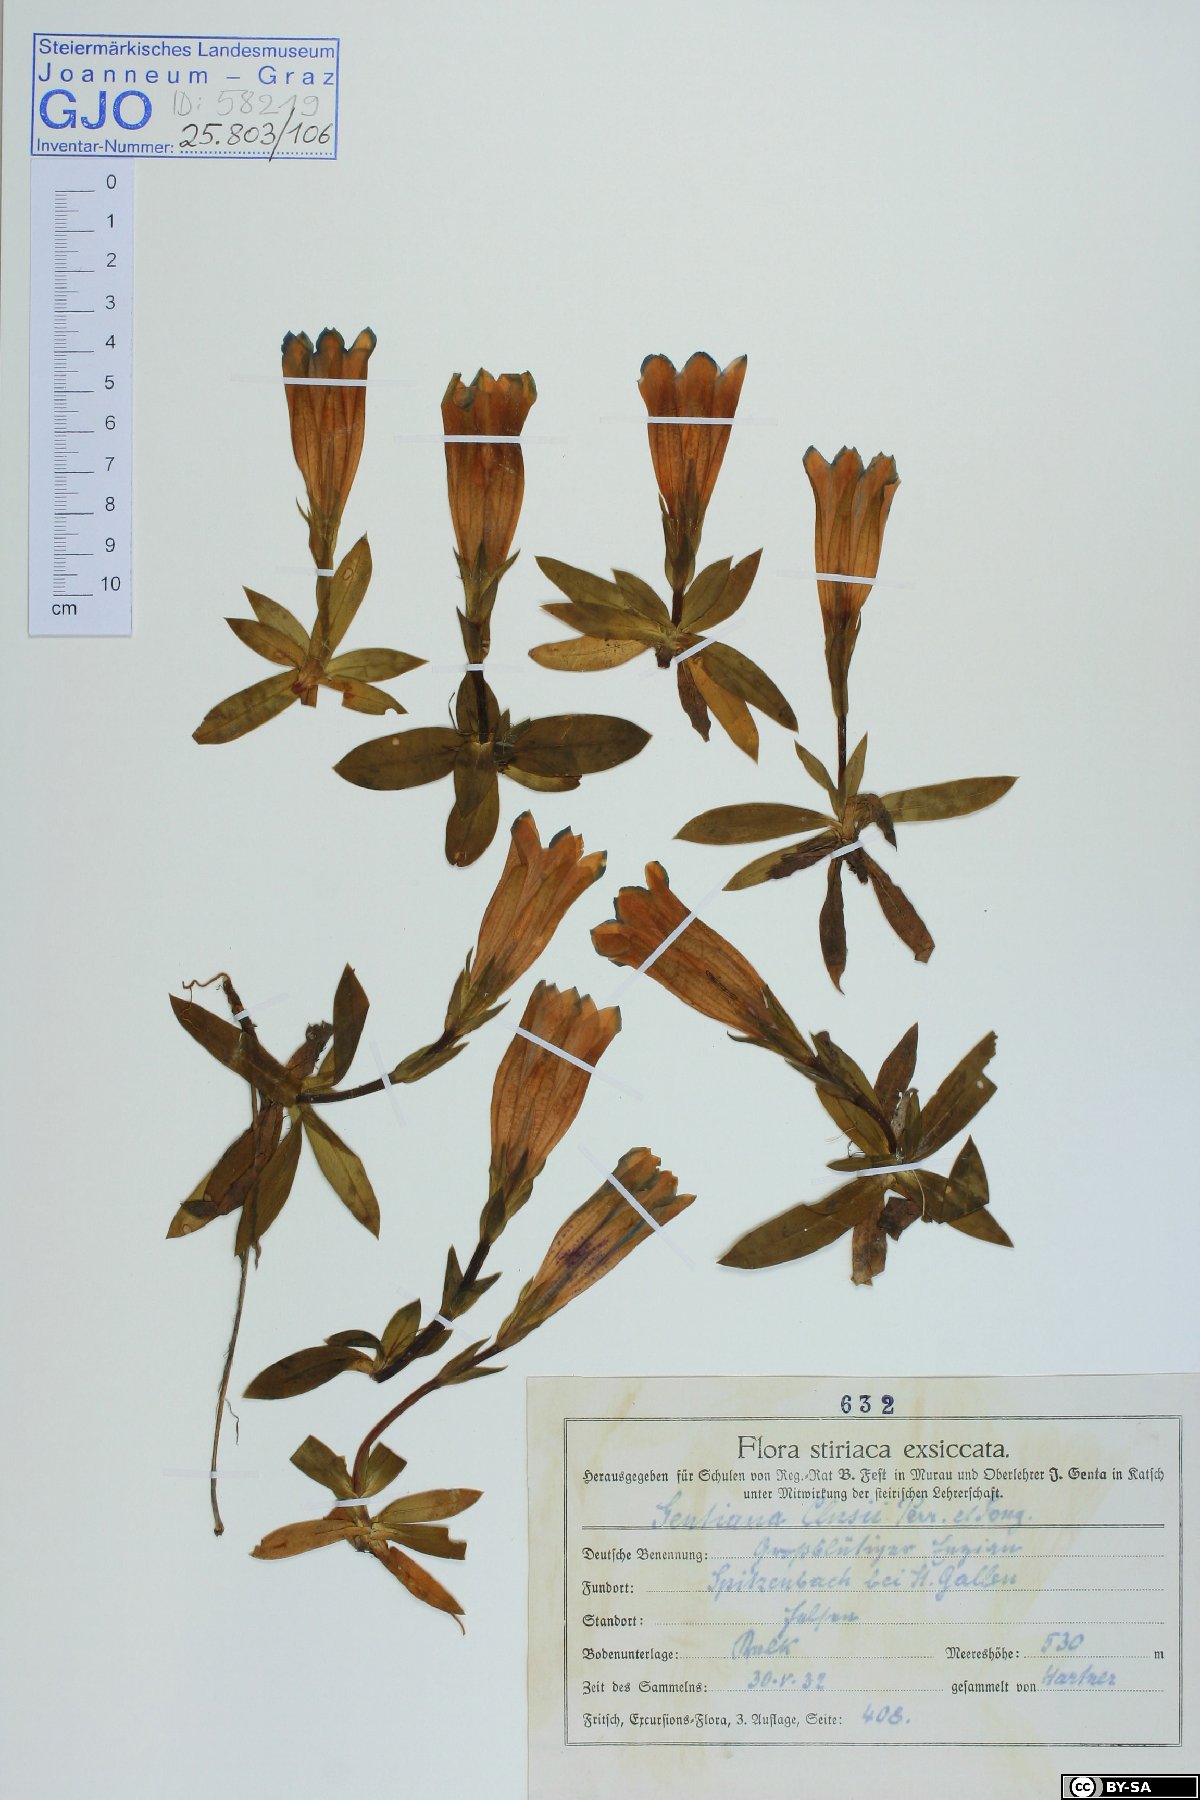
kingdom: Plantae
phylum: Tracheophyta
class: Magnoliopsida
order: Gentianales
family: Gentianaceae
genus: Gentiana
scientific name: Gentiana clusii
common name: Trumpet gentian
